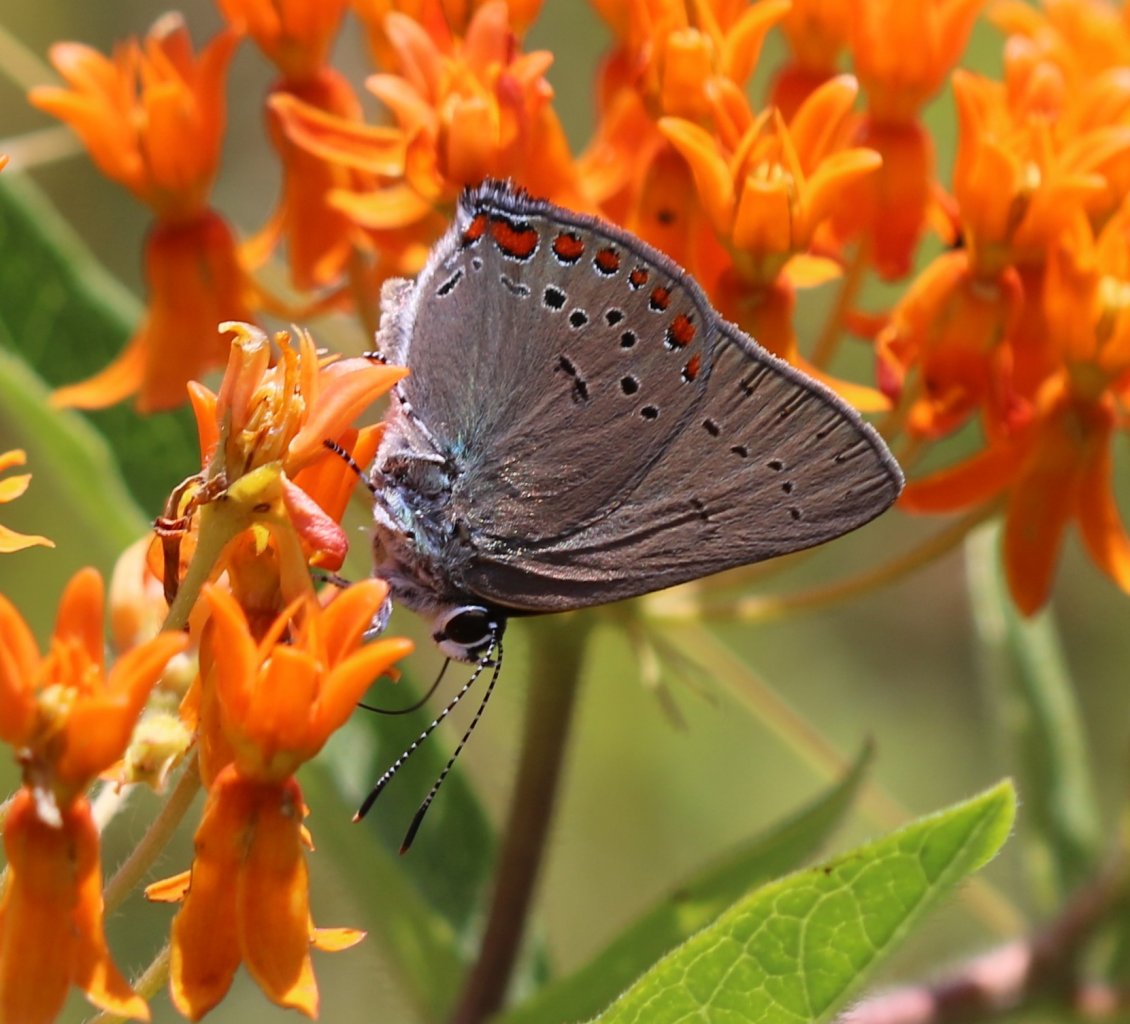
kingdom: Animalia
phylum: Arthropoda
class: Insecta
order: Lepidoptera
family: Lycaenidae
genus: Harkenclenus
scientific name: Harkenclenus titus
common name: Coral Hairstreak
